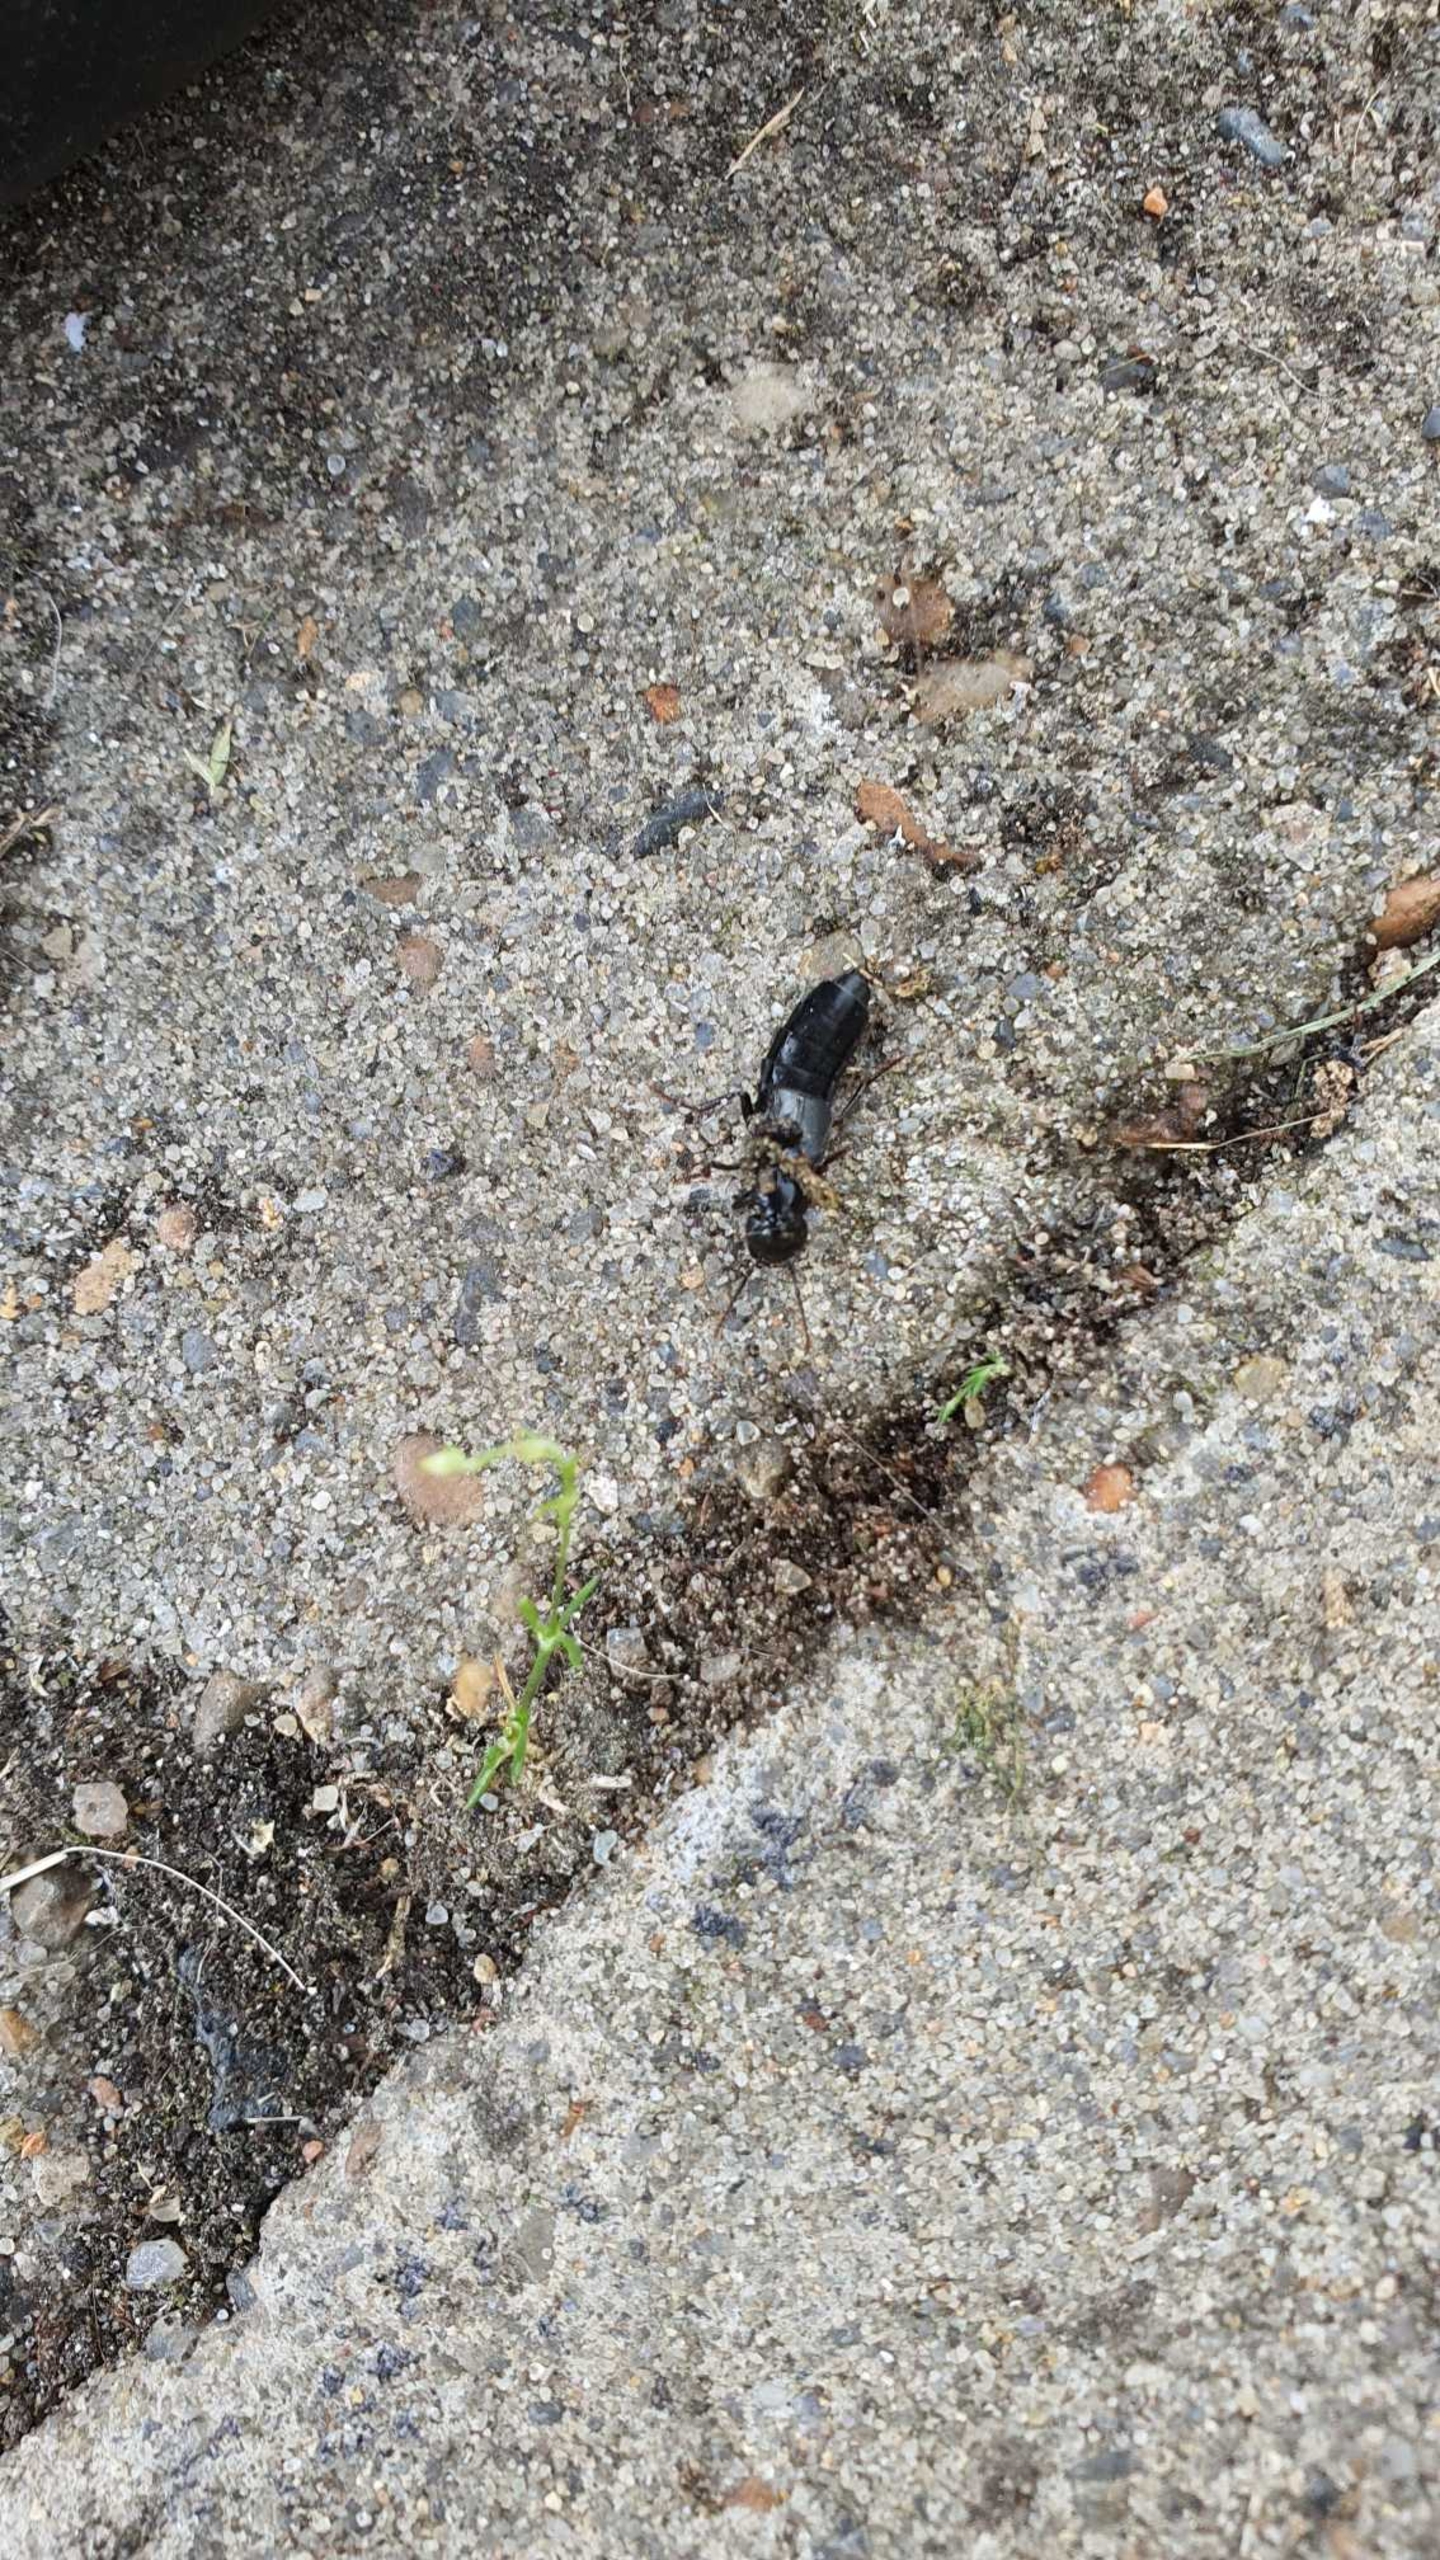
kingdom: Animalia
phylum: Arthropoda
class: Insecta
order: Coleoptera
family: Staphylinidae
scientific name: Staphylinidae
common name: Rovbiller
